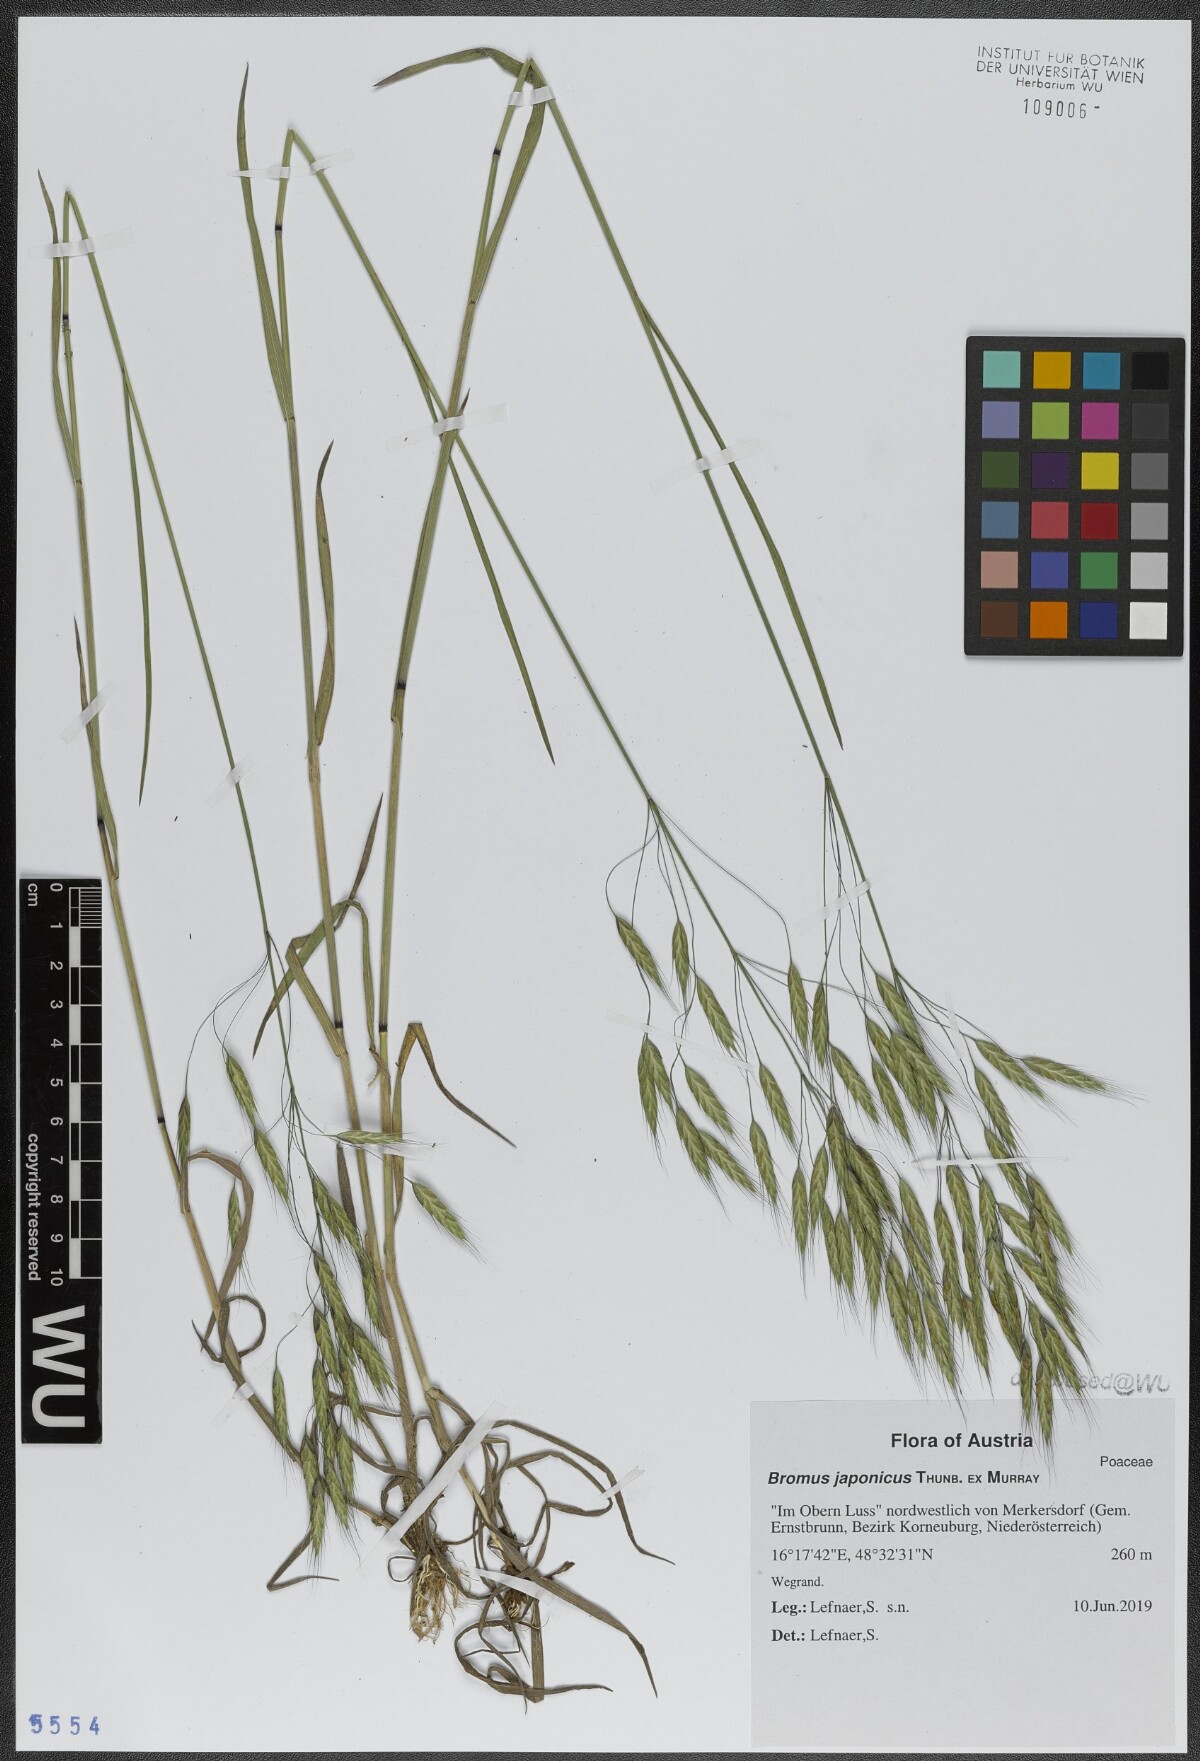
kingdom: Plantae
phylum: Tracheophyta
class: Liliopsida
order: Poales
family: Poaceae
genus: Bromus
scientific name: Bromus japonicus
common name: Japanese brome
